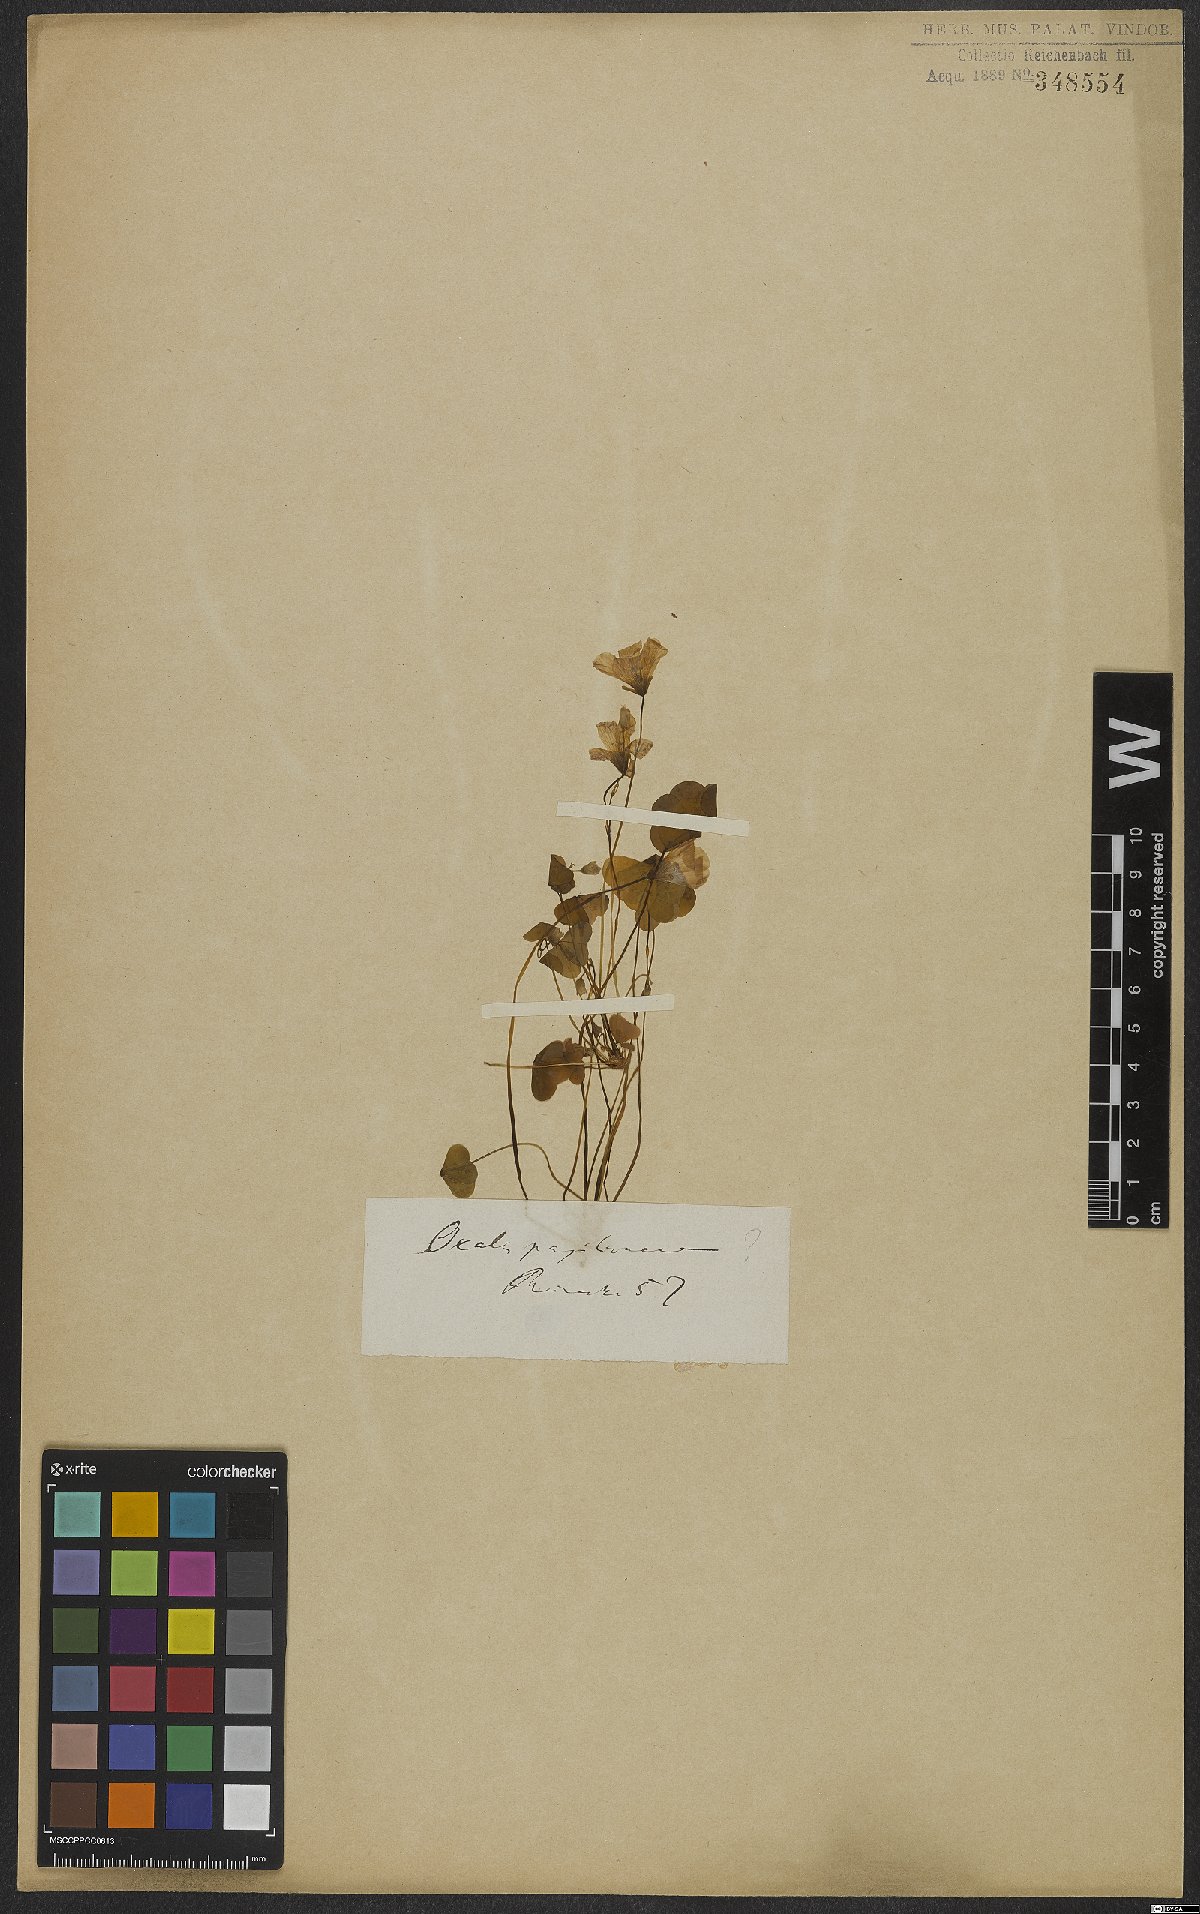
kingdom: Plantae
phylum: Tracheophyta
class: Magnoliopsida
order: Oxalidales
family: Oxalidaceae
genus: Oxalis
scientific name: Oxalis triangularis
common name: Wood sorrel
